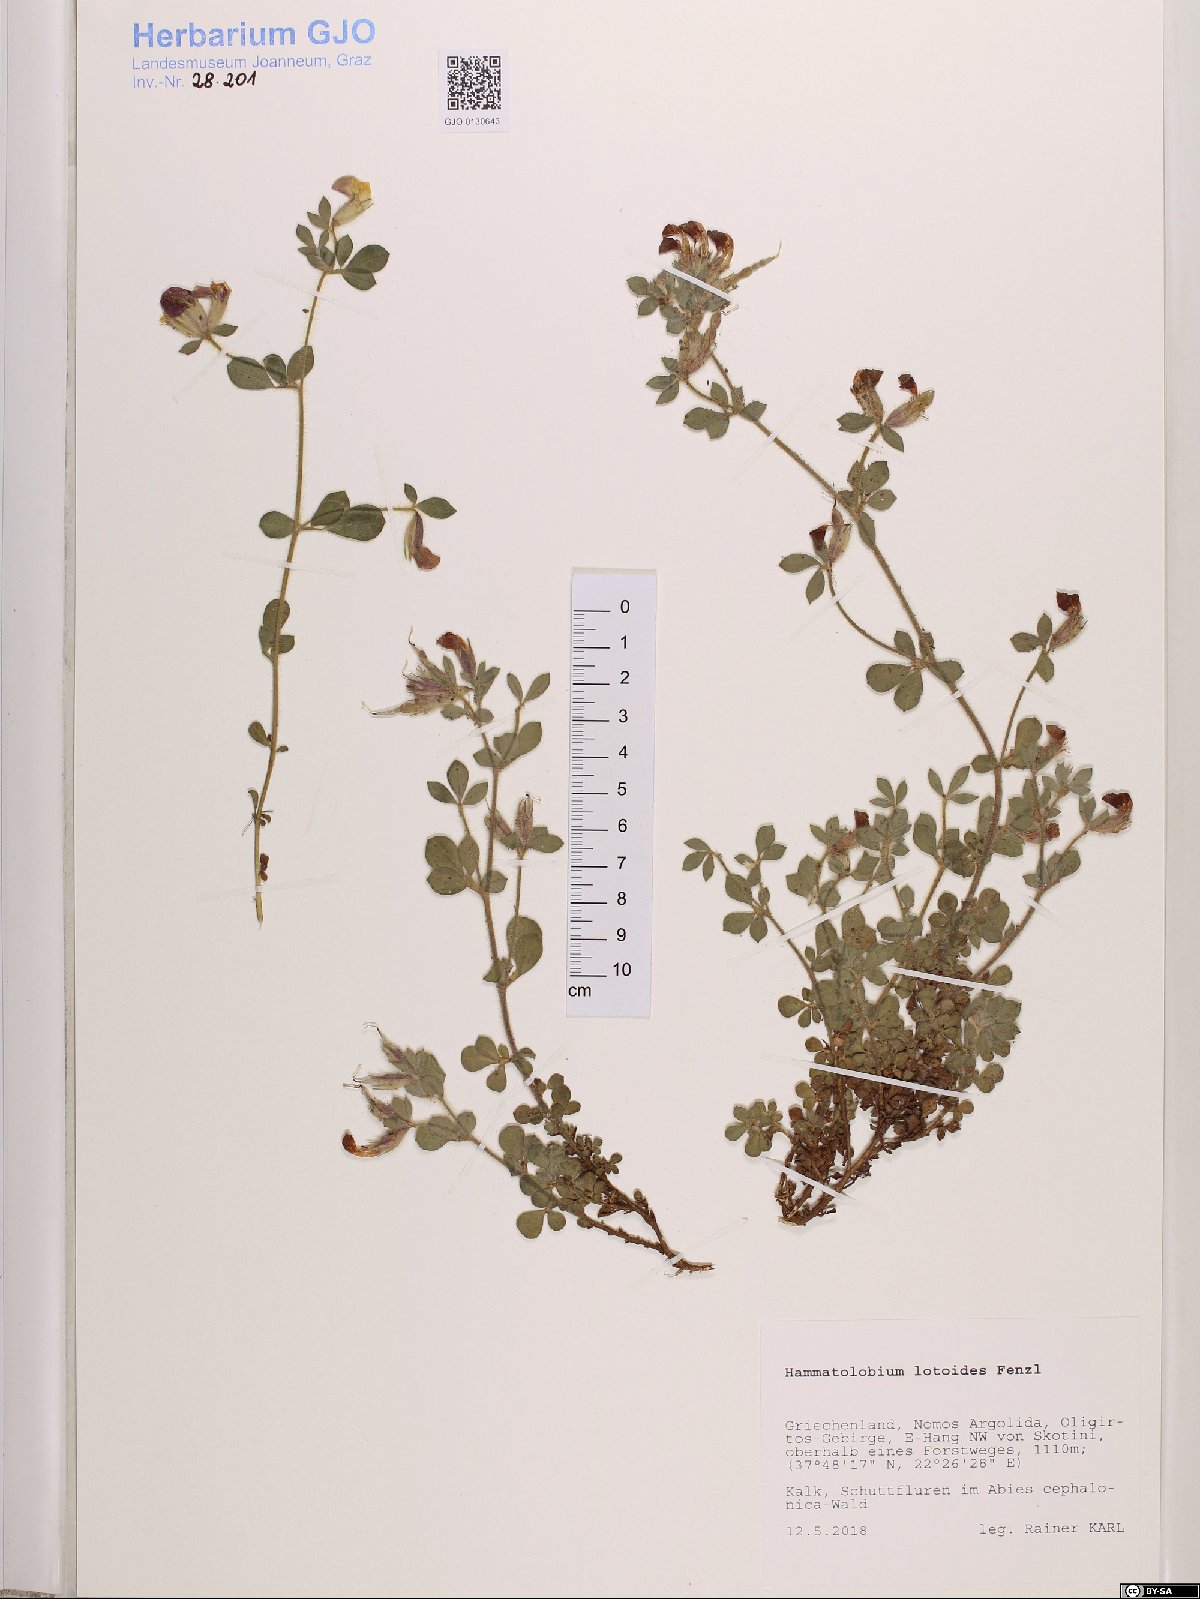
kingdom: Plantae
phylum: Tracheophyta
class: Magnoliopsida
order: Fabales
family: Fabaceae
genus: Hammatolobium
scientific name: Hammatolobium lotoides
